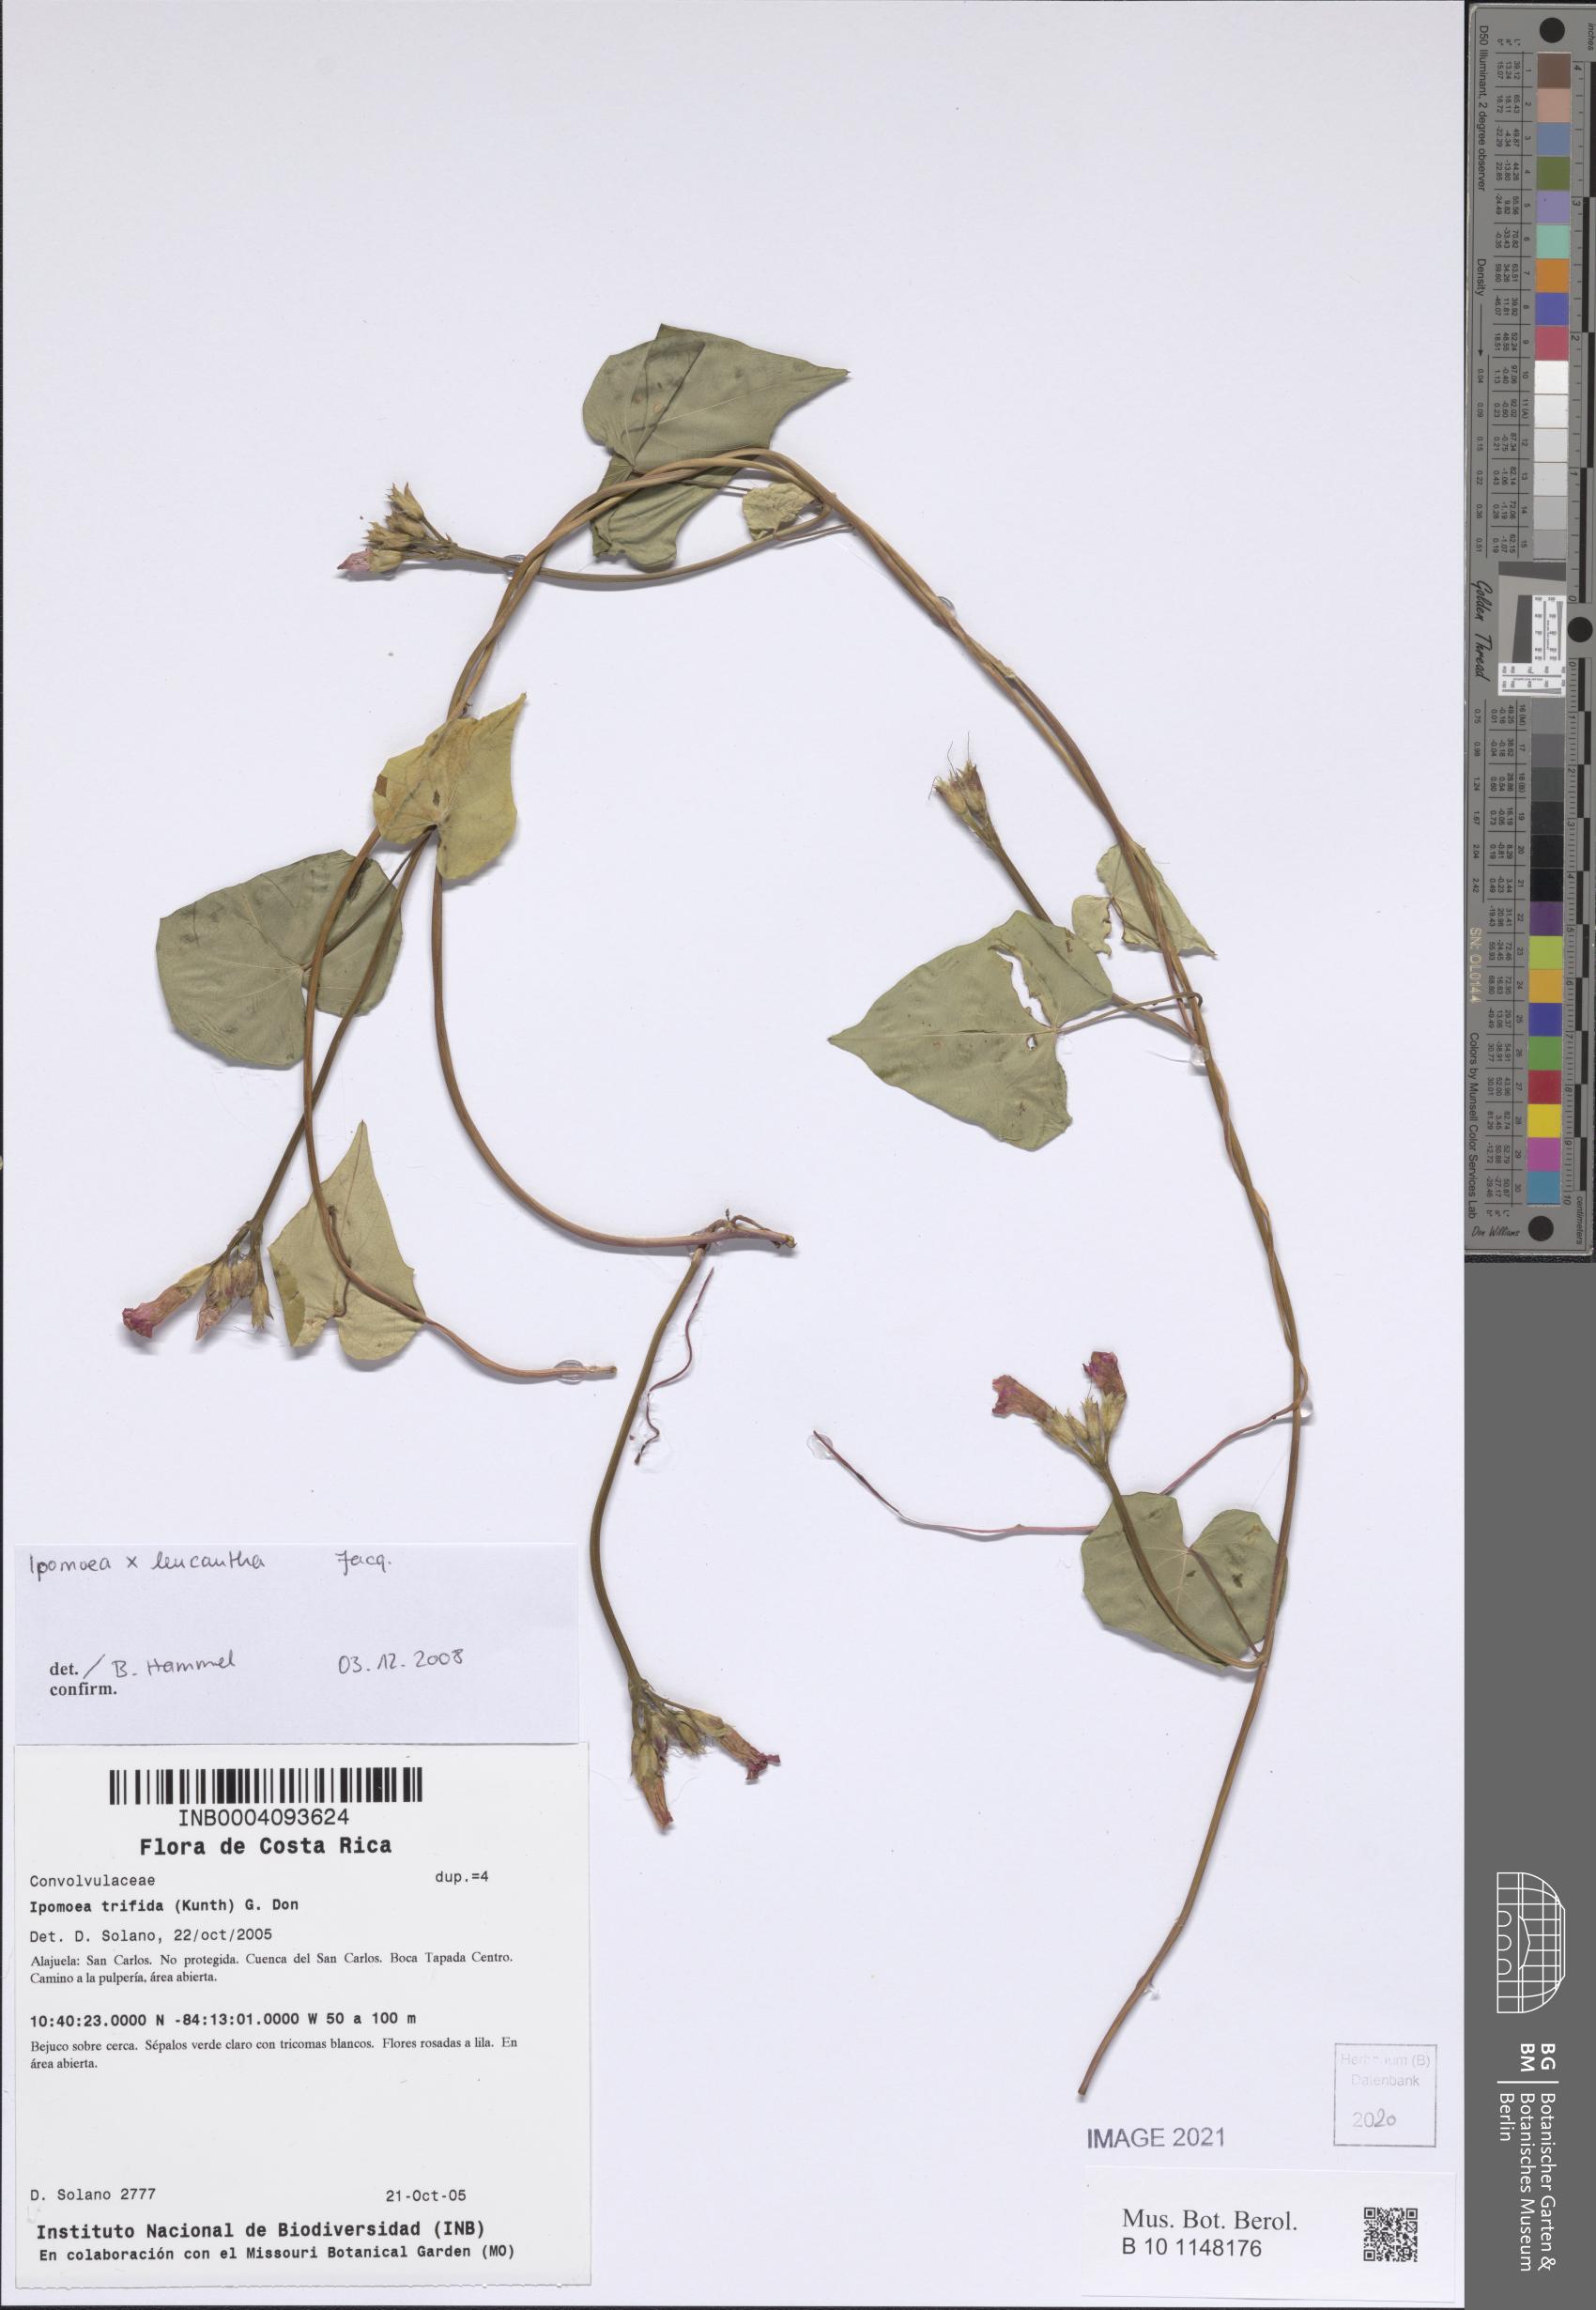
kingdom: Plantae
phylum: Tracheophyta
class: Magnoliopsida
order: Solanales
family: Convolvulaceae
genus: Ipomoea
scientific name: Ipomoea
